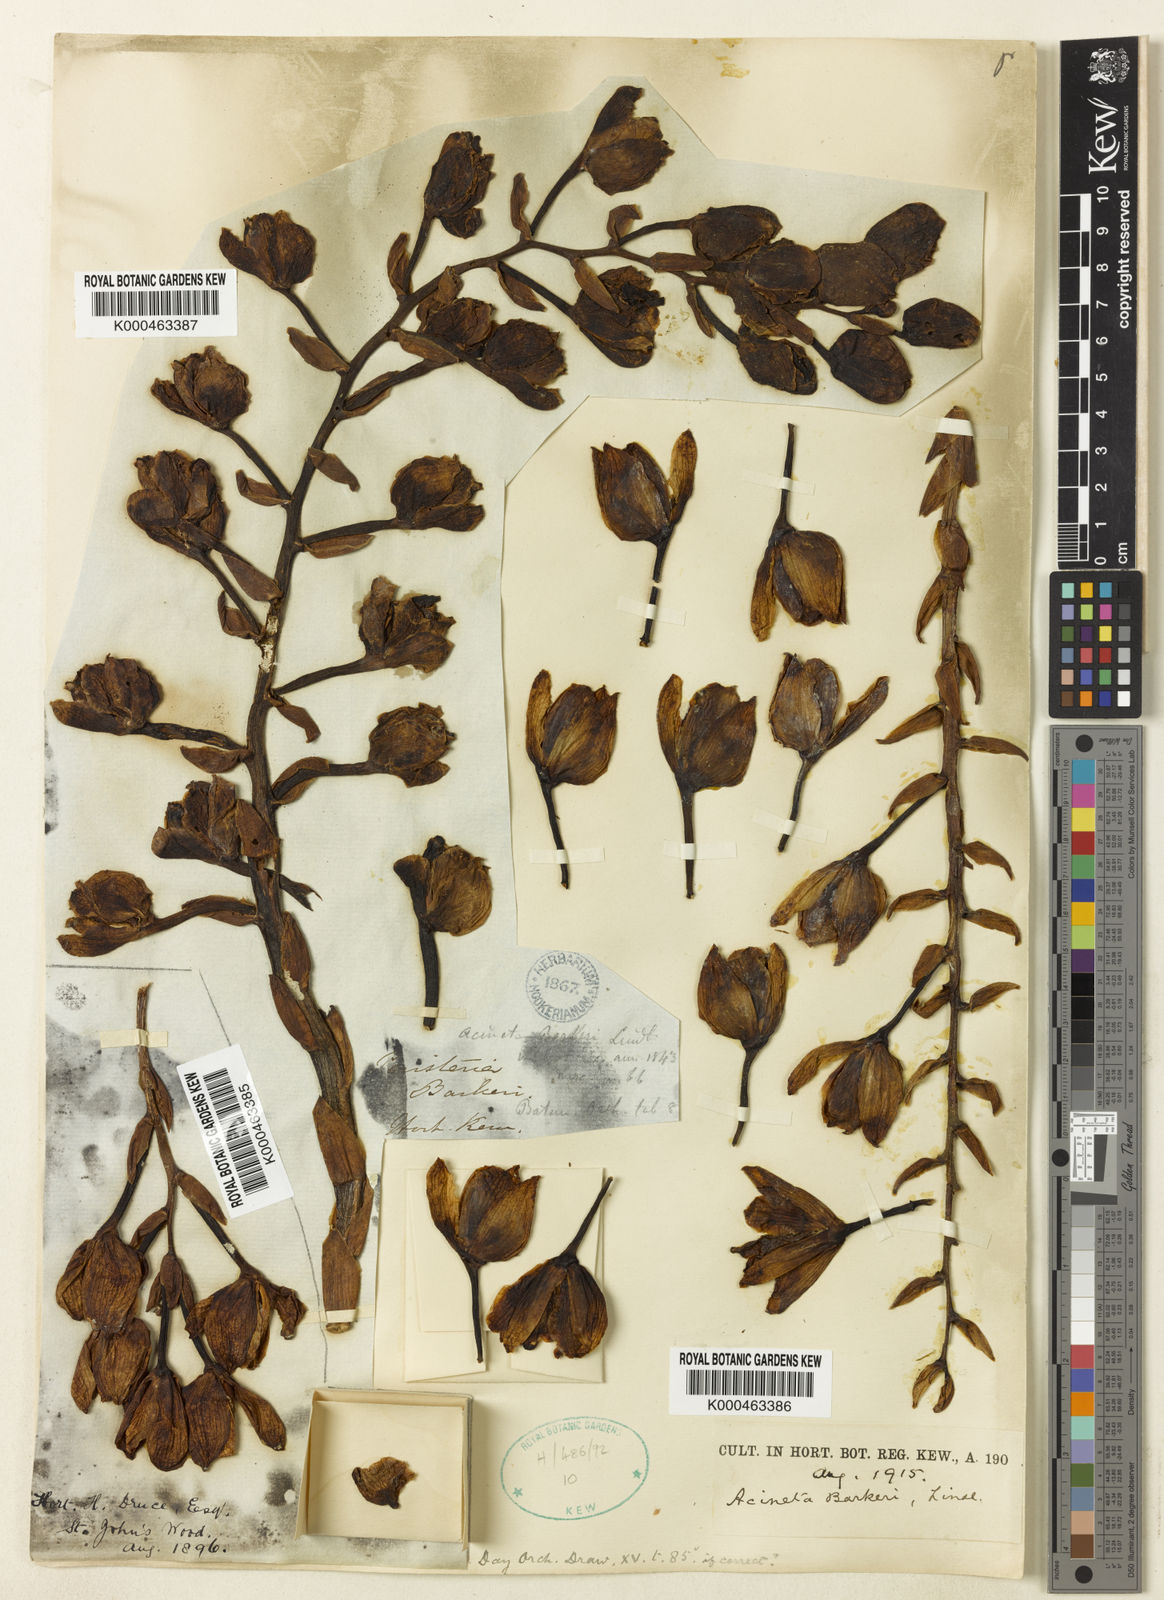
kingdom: Plantae
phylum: Tracheophyta
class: Liliopsida
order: Asparagales
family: Orchidaceae
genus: Acineta
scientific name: Acineta barkeri
